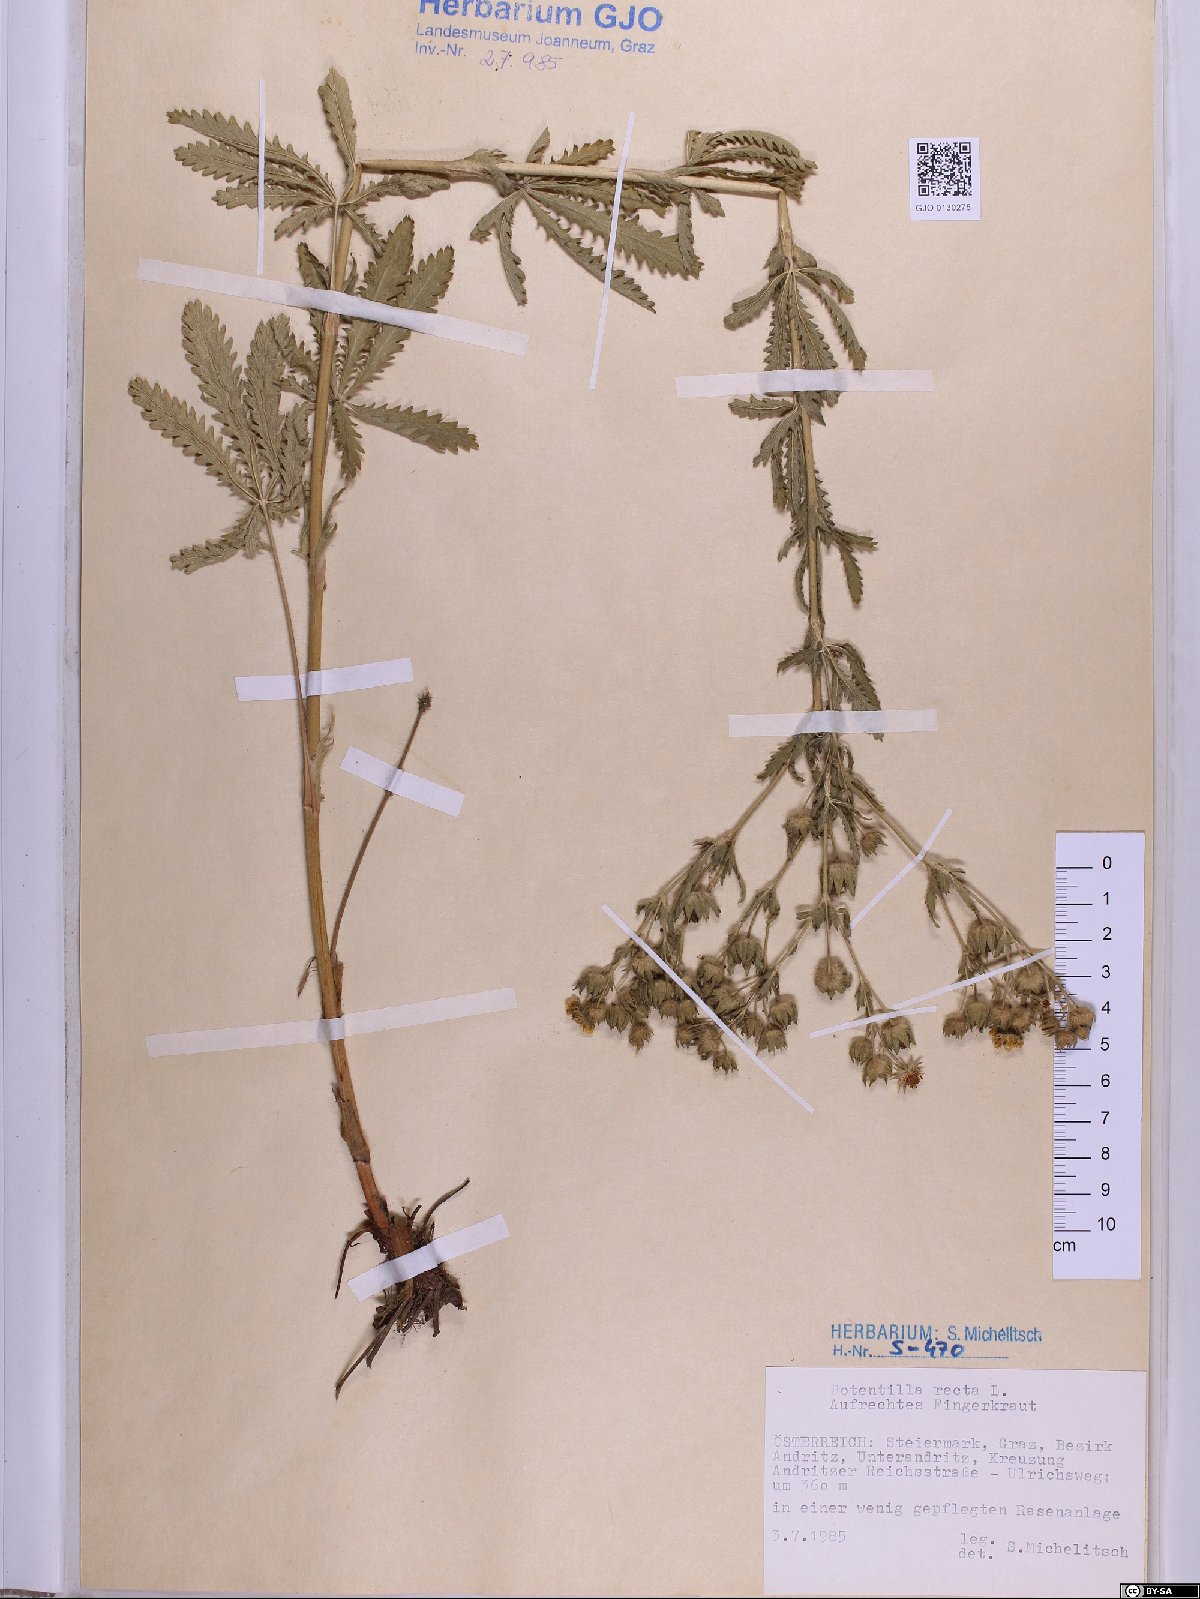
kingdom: Plantae
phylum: Tracheophyta
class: Magnoliopsida
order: Rosales
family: Rosaceae
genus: Potentilla
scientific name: Potentilla recta
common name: Sulphur cinquefoil
